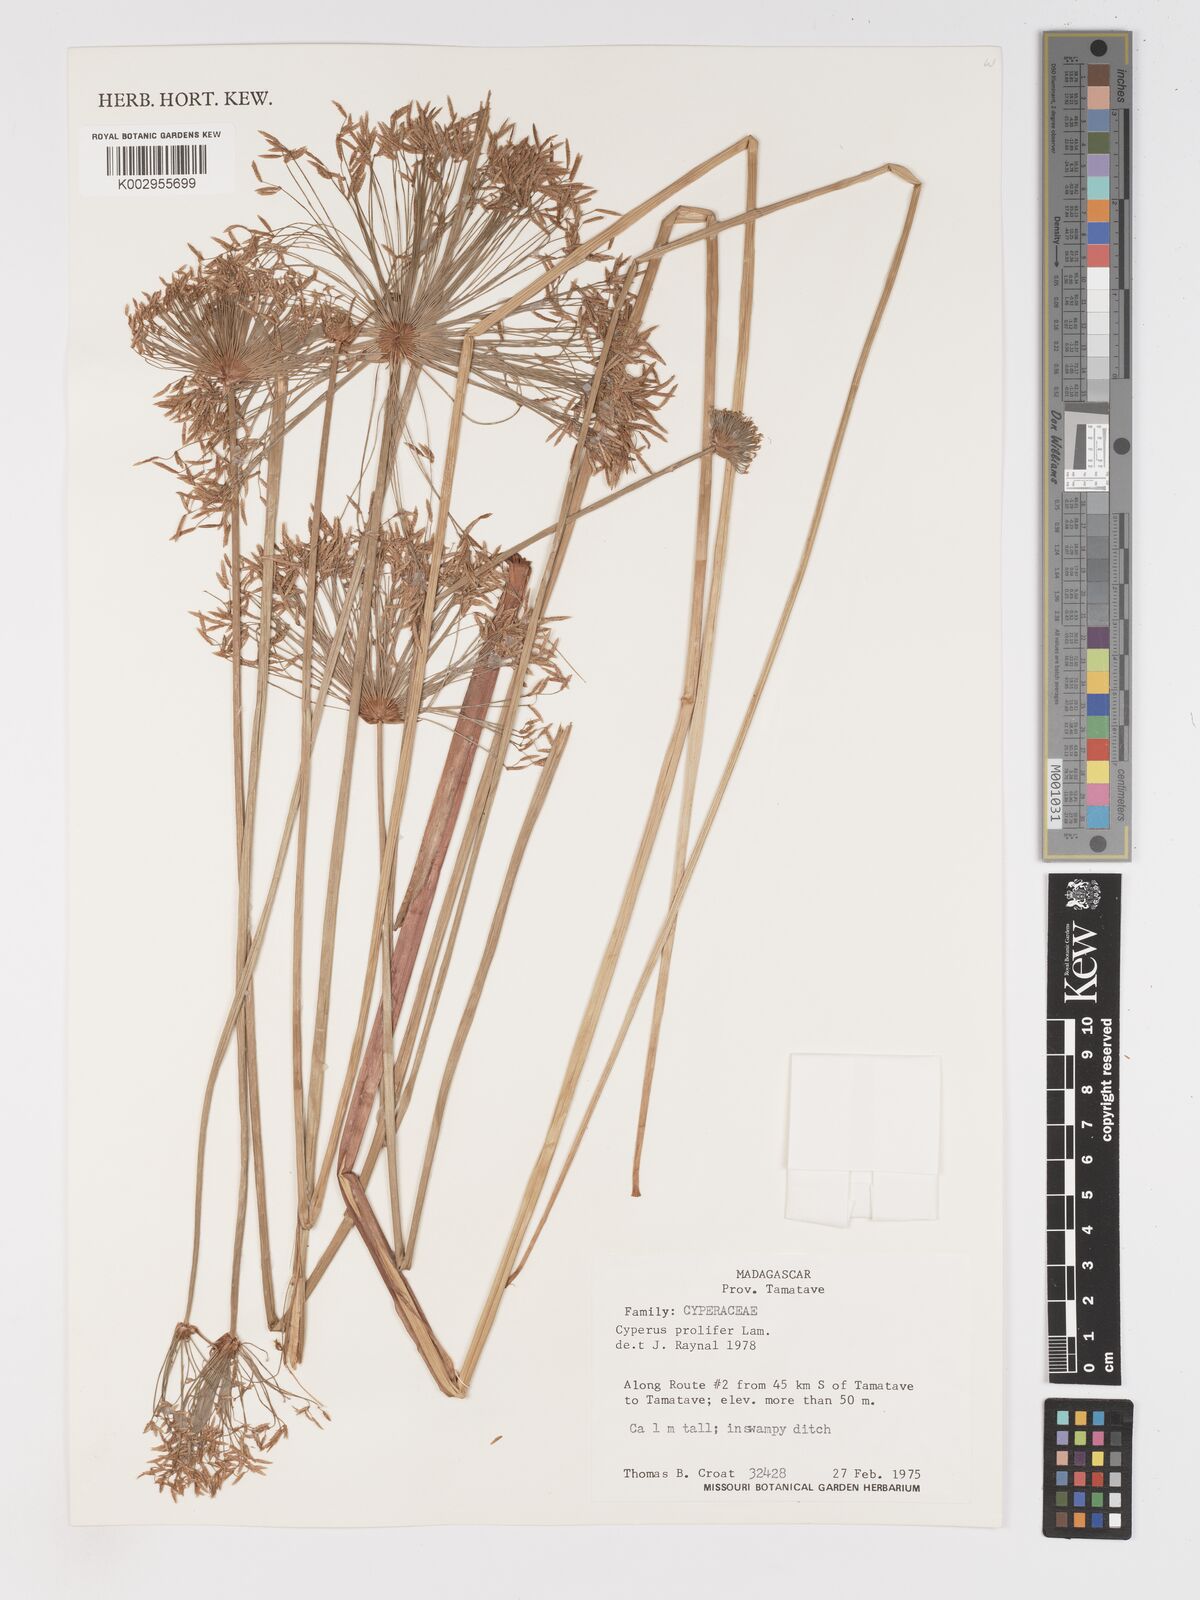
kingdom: Plantae
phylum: Tracheophyta
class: Liliopsida
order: Poales
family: Cyperaceae
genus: Cyperus
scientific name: Cyperus prolifer
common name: Miniature flatsedge
